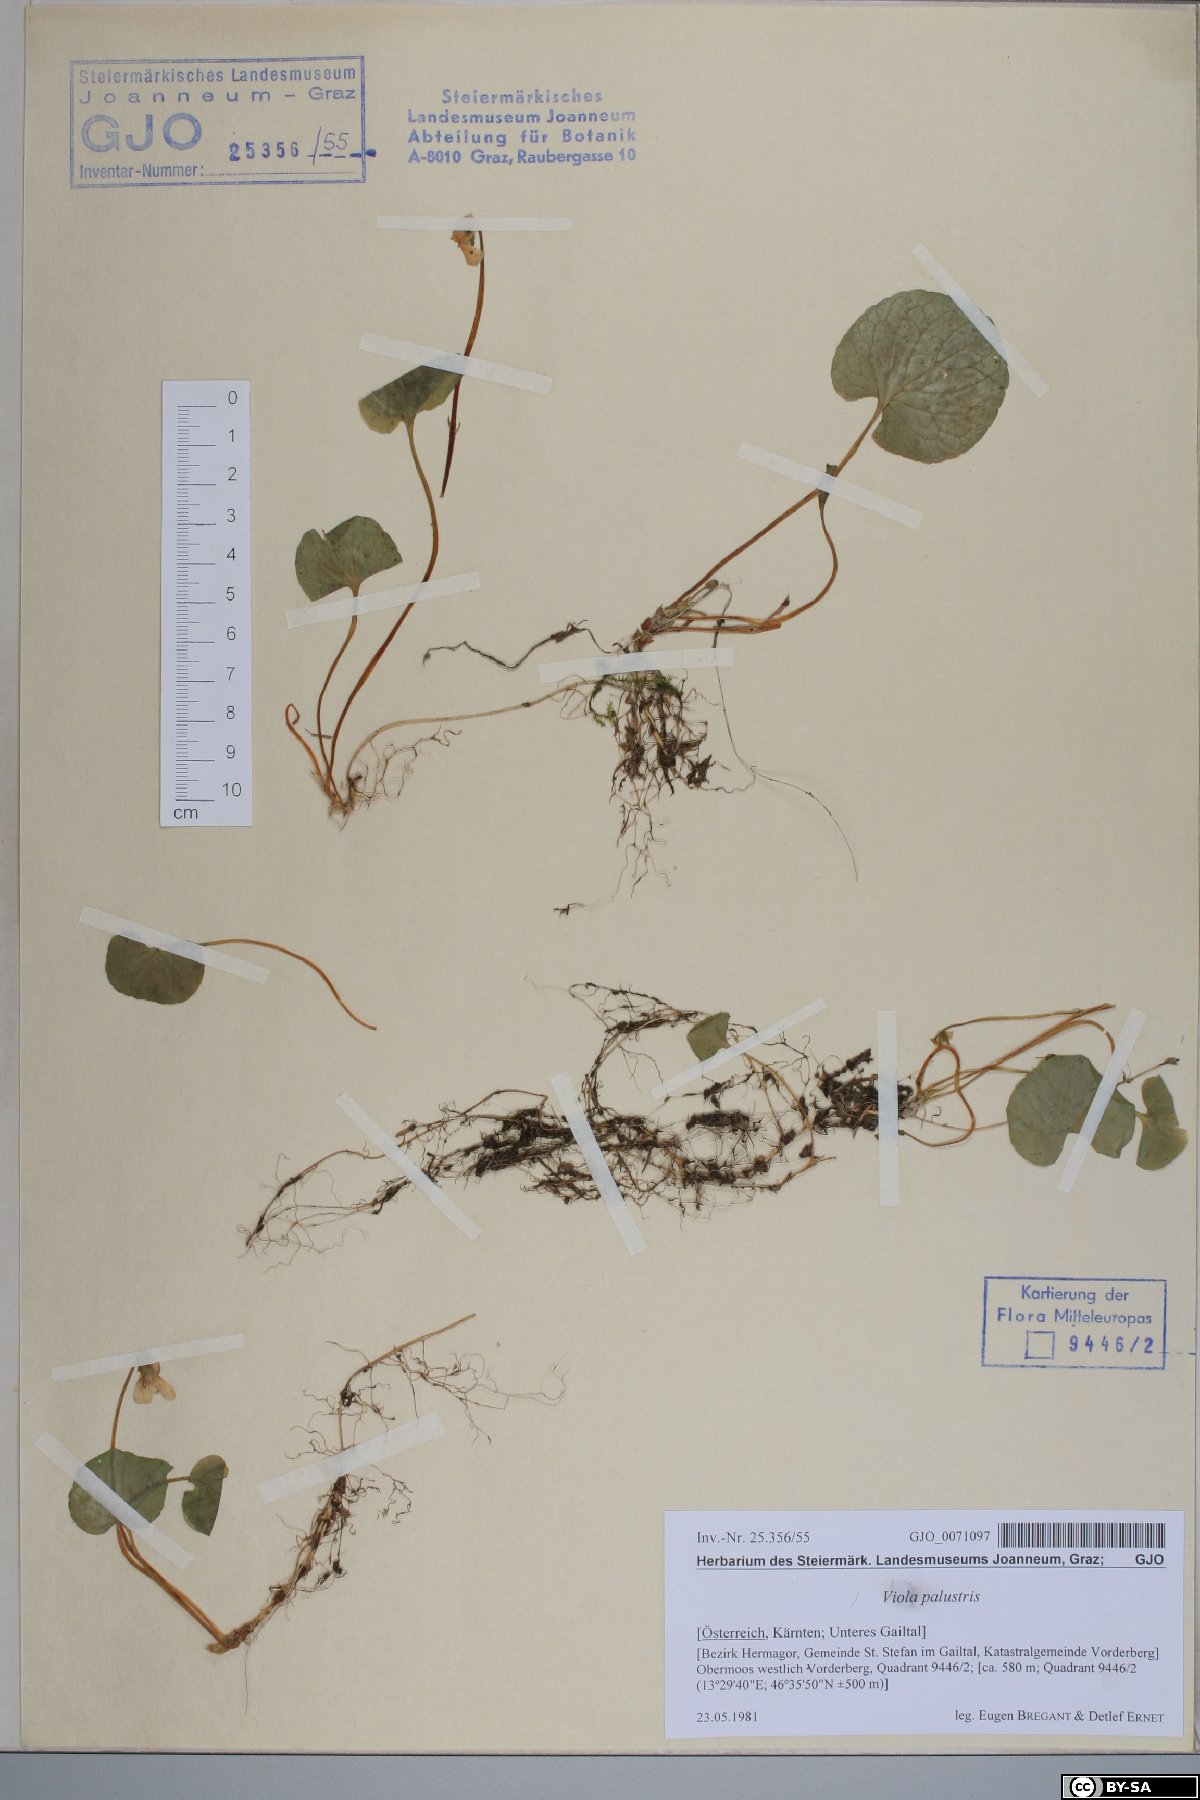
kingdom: Plantae
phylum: Tracheophyta
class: Magnoliopsida
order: Malpighiales
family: Violaceae
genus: Viola
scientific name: Viola palustris
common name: Marsh violet
